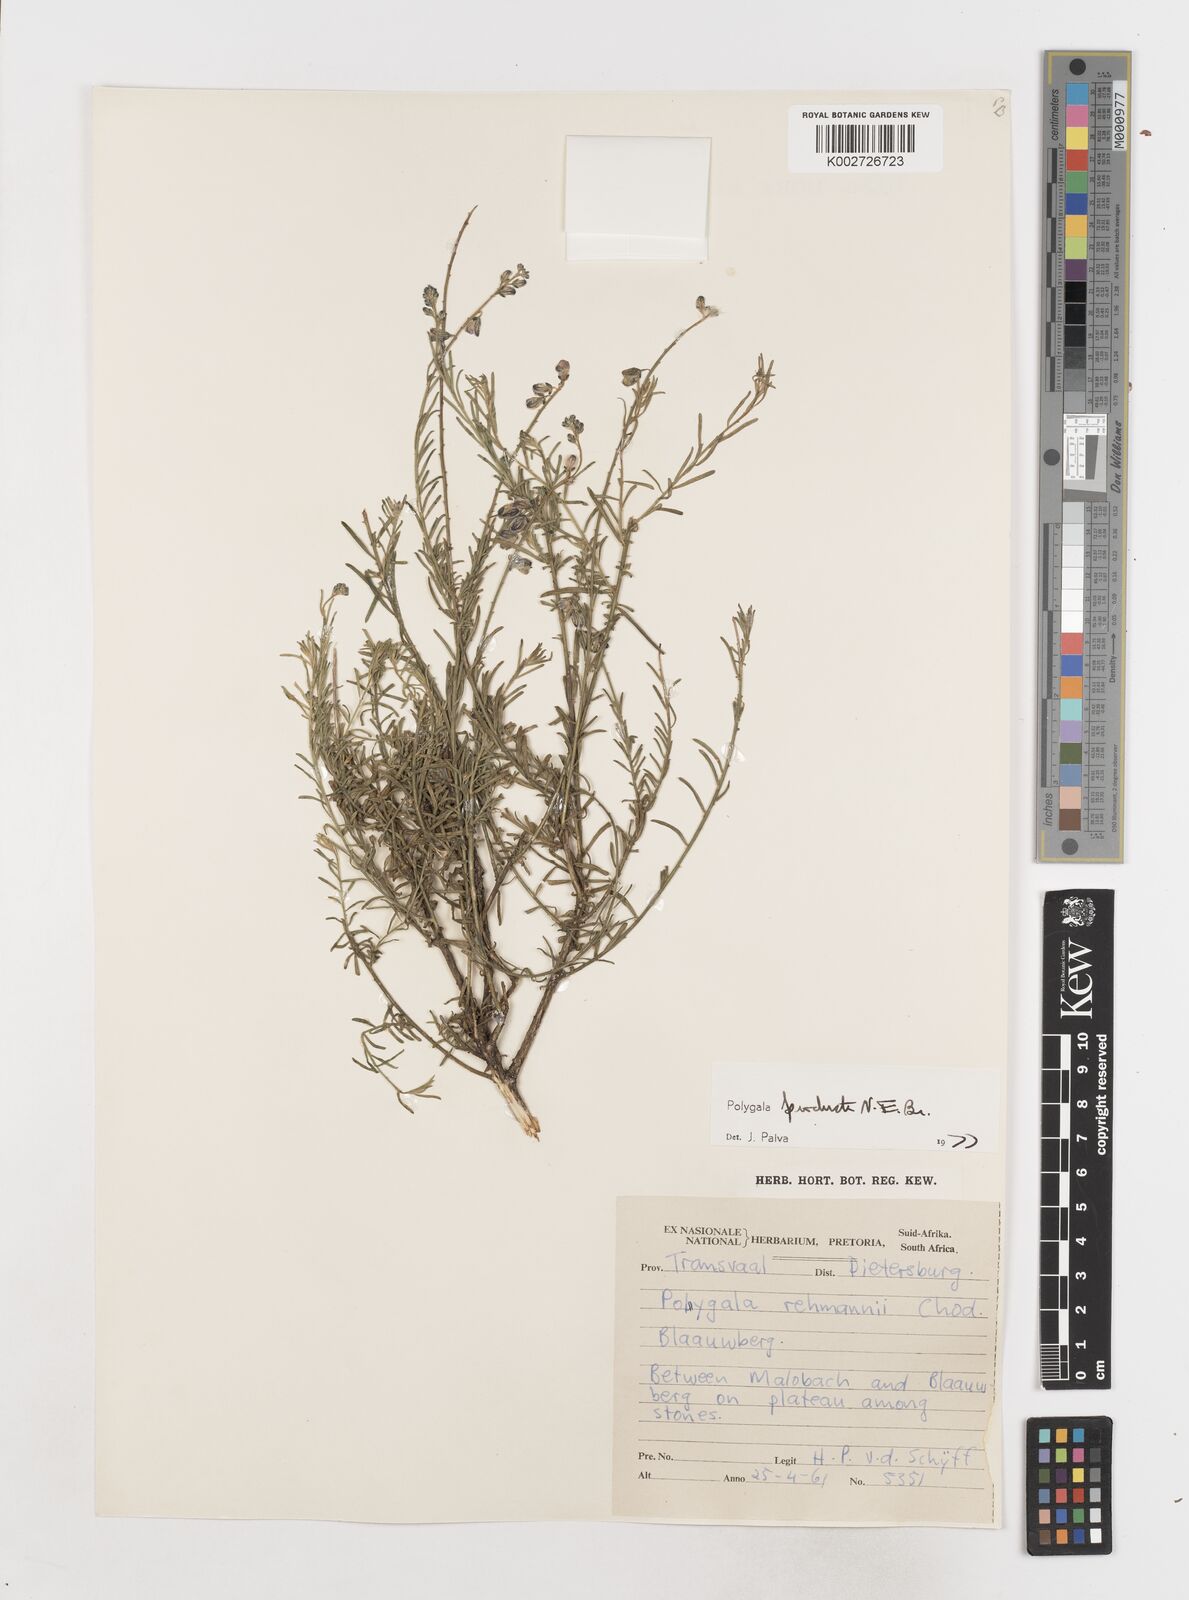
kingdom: Plantae
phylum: Tracheophyta
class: Magnoliopsida
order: Fabales
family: Polygalaceae
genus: Polygala
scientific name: Polygala producta
